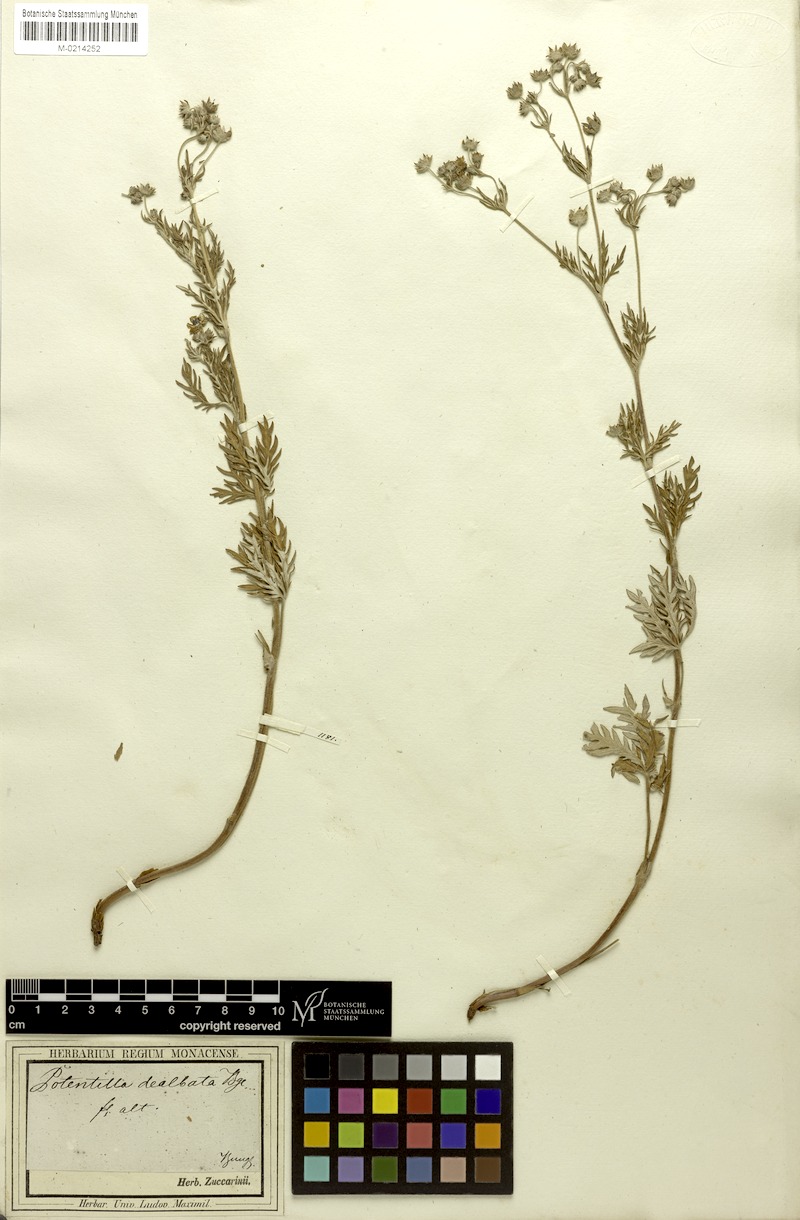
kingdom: Plantae
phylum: Tracheophyta
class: Magnoliopsida
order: Rosales
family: Rosaceae
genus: Potentilla
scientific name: Potentilla virgata
